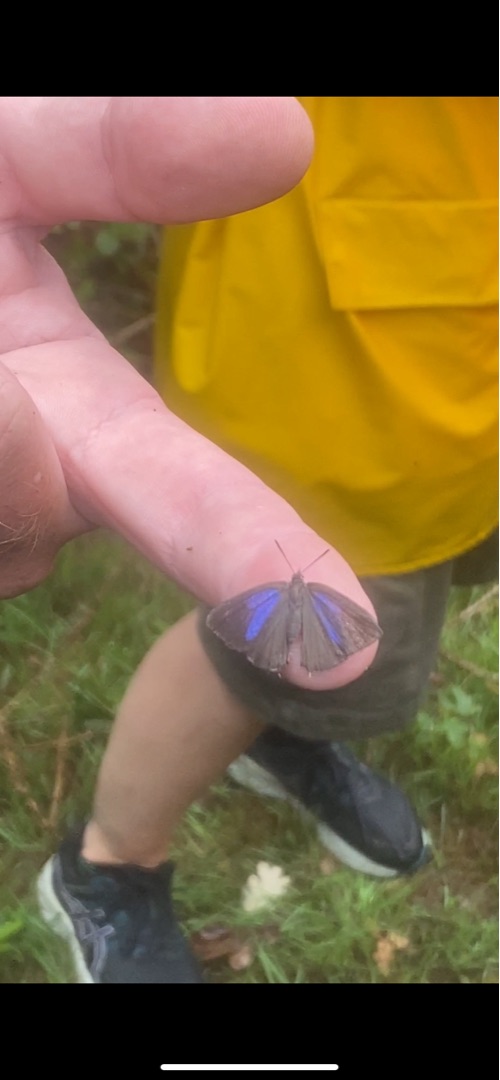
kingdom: Animalia
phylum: Arthropoda
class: Insecta
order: Lepidoptera
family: Lycaenidae
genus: Quercusia
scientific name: Quercusia quercus
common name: Blåhale
